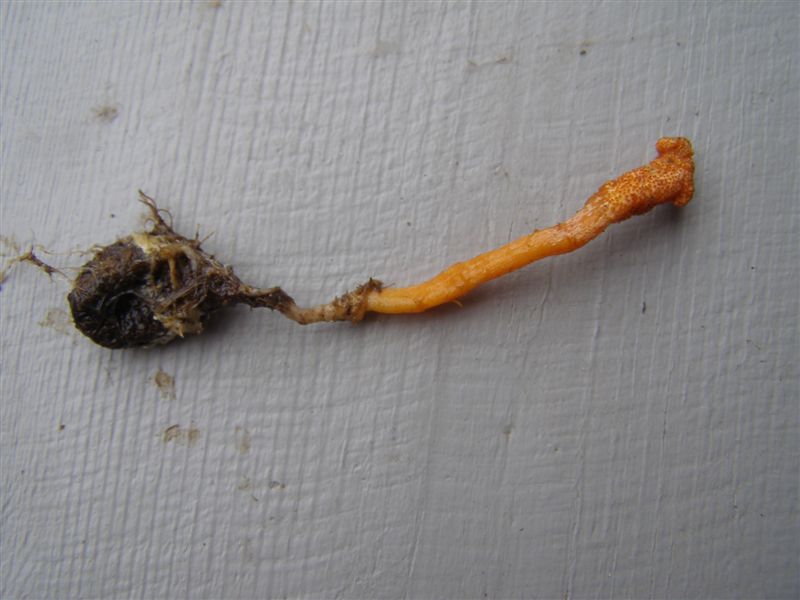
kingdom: Fungi
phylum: Ascomycota
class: Sordariomycetes
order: Hypocreales
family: Cordycipitaceae
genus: Cordyceps
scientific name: Cordyceps militaris
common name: puppe-snyltekølle
